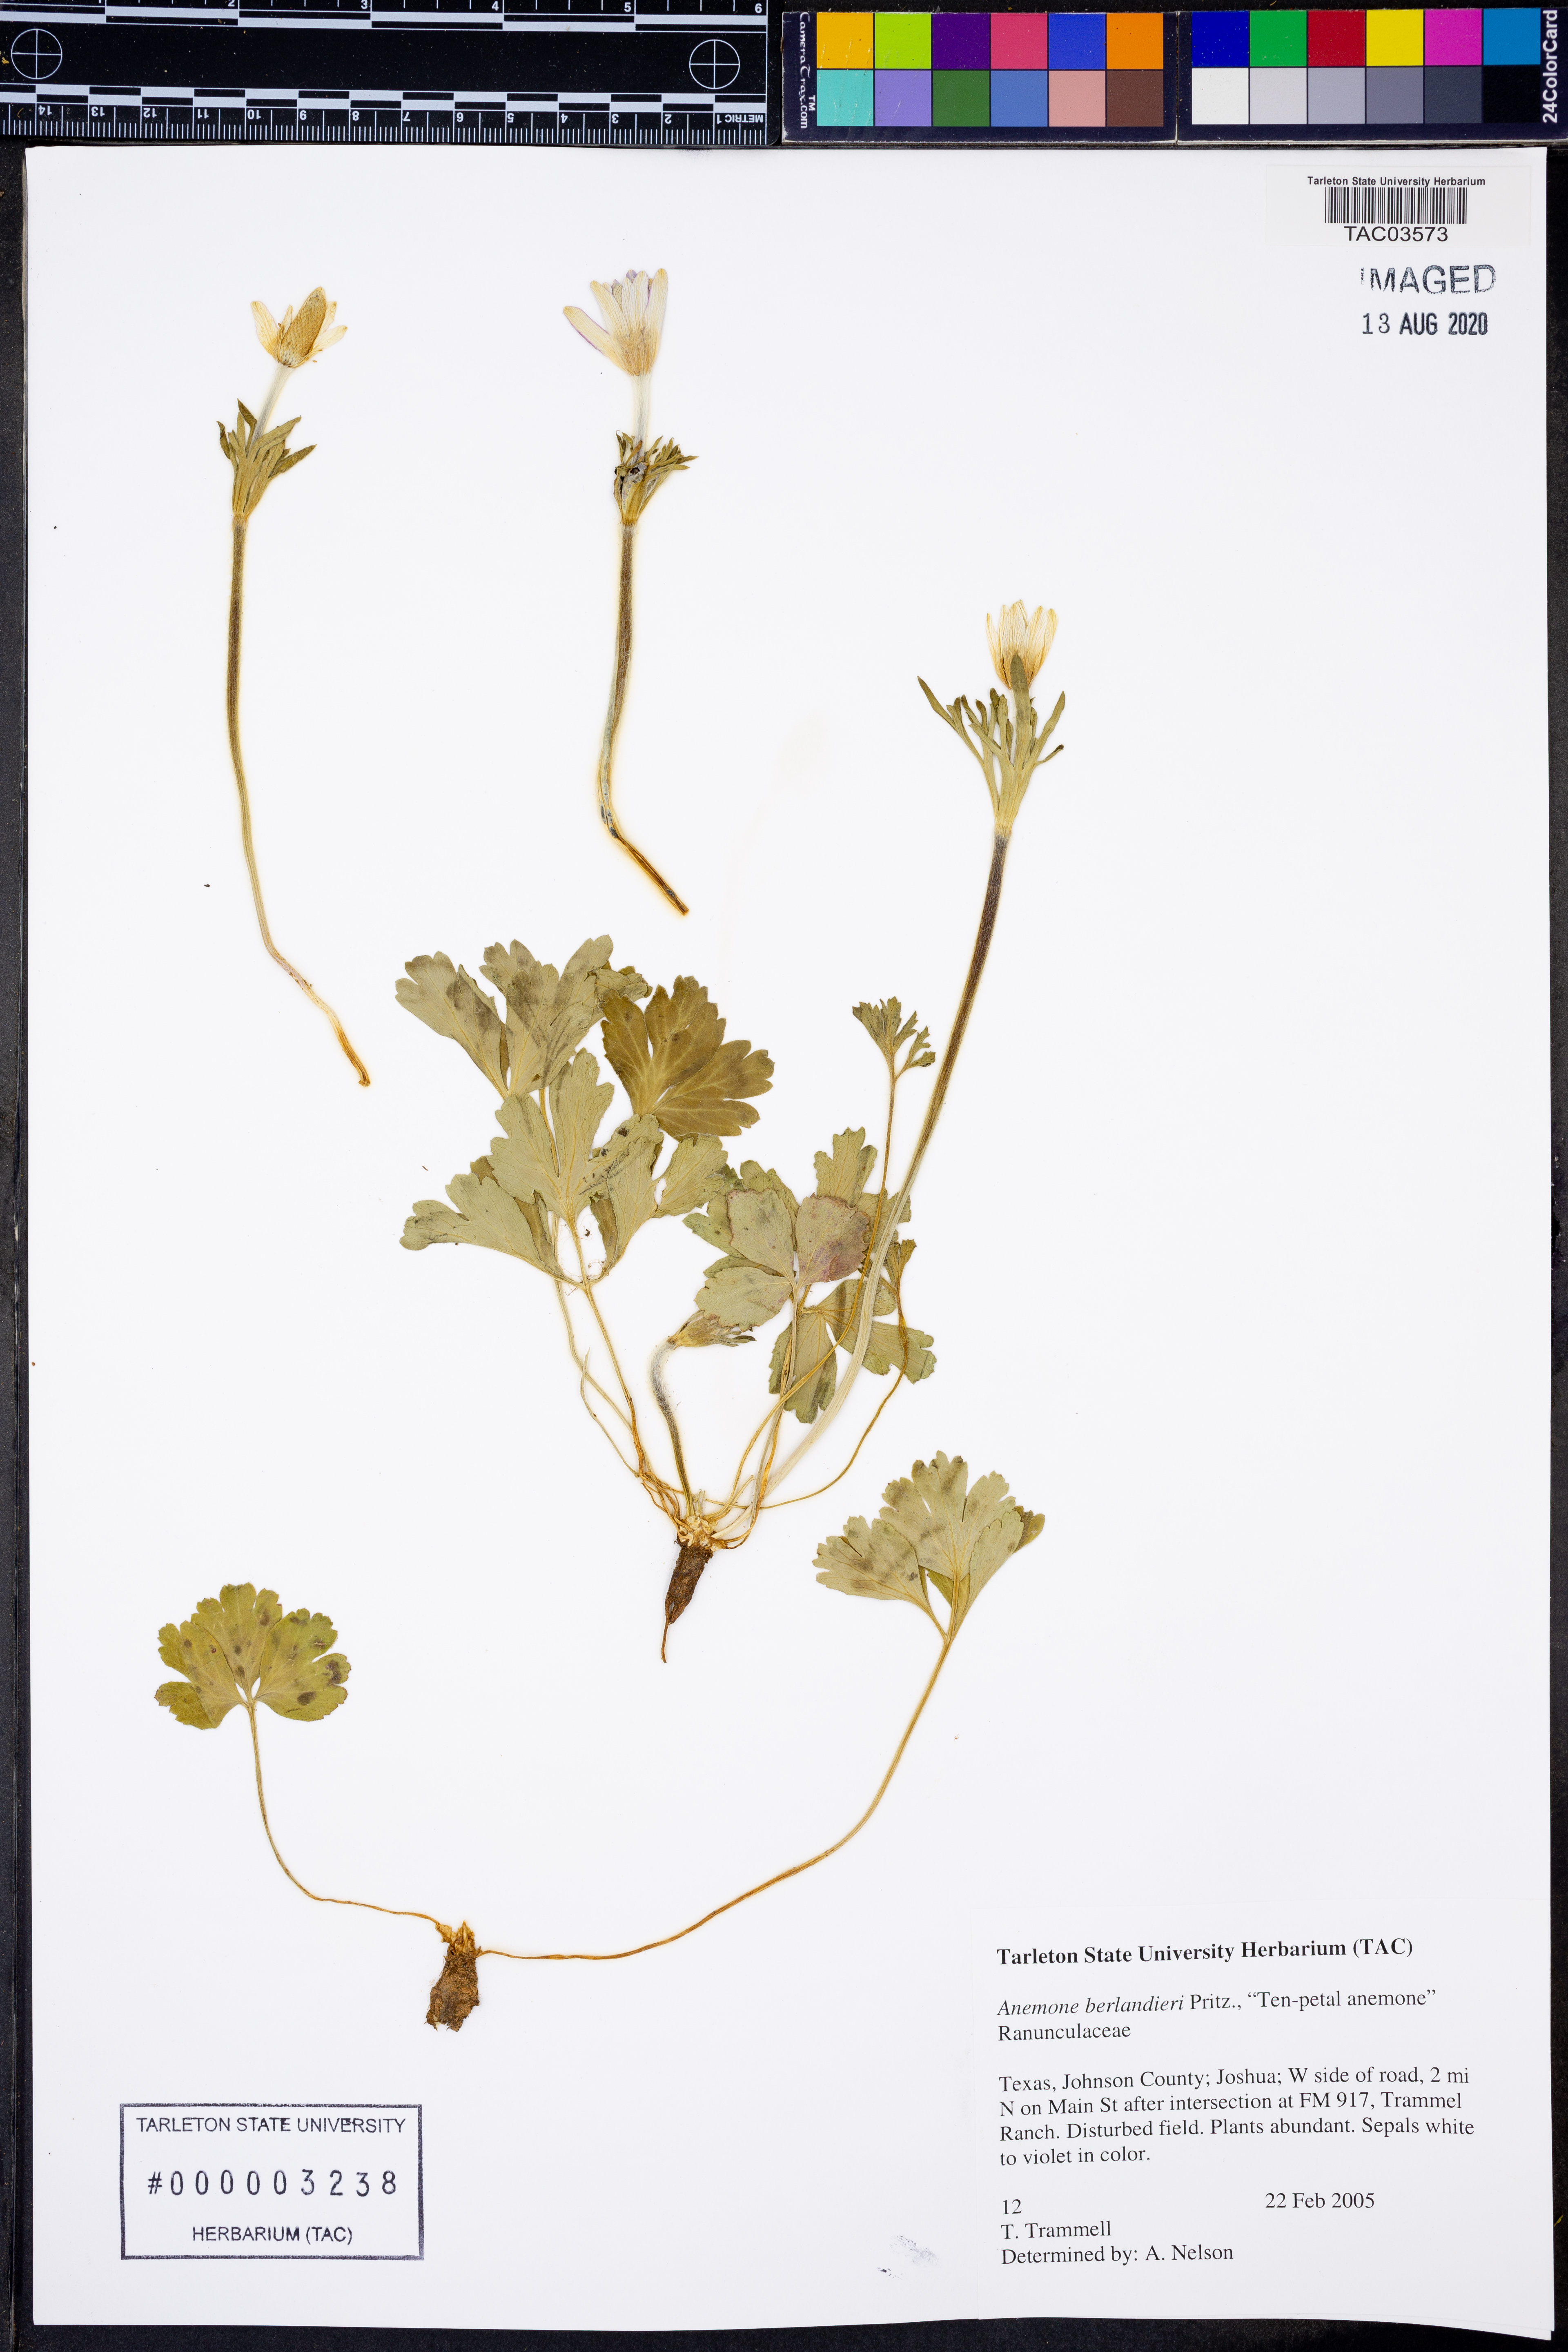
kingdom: Plantae
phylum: Tracheophyta
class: Magnoliopsida
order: Ranunculales
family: Ranunculaceae
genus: Anemone
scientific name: Anemone berlandieri
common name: Ten-petal anemone
